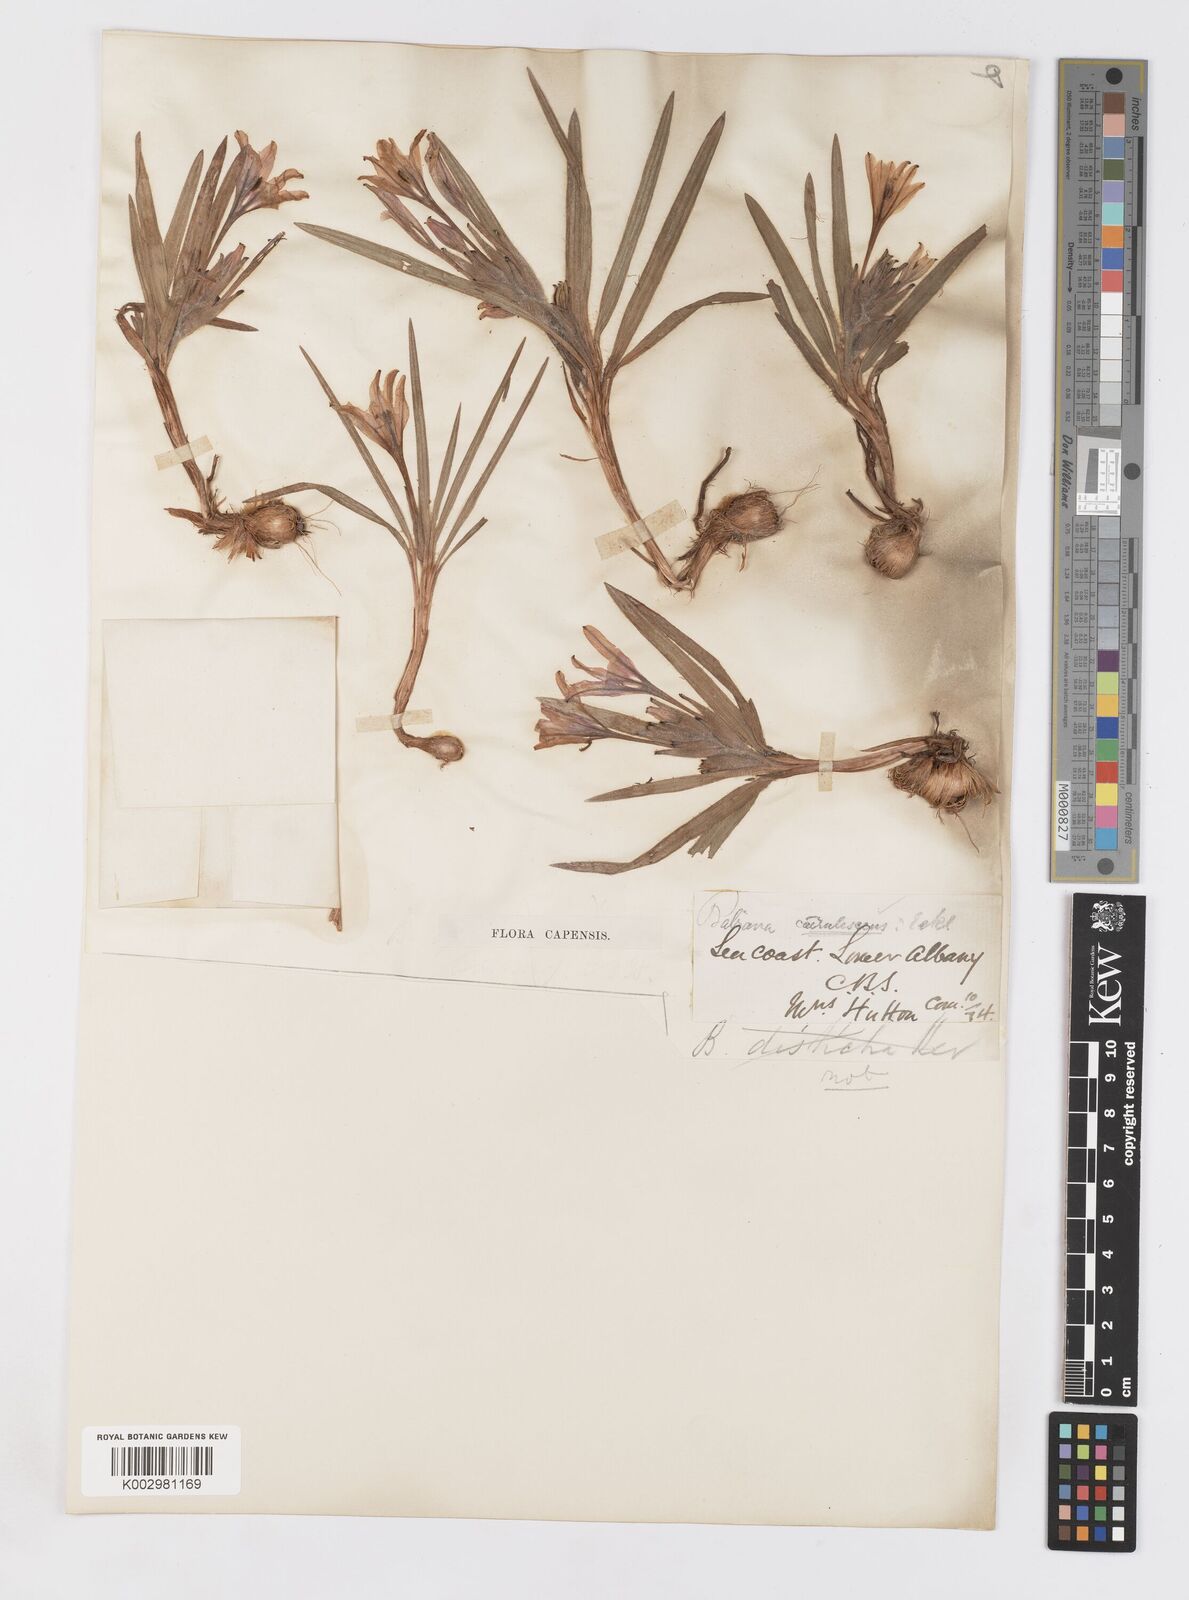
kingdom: Plantae
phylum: Tracheophyta
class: Liliopsida
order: Asparagales
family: Iridaceae
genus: Babiana
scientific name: Babiana
